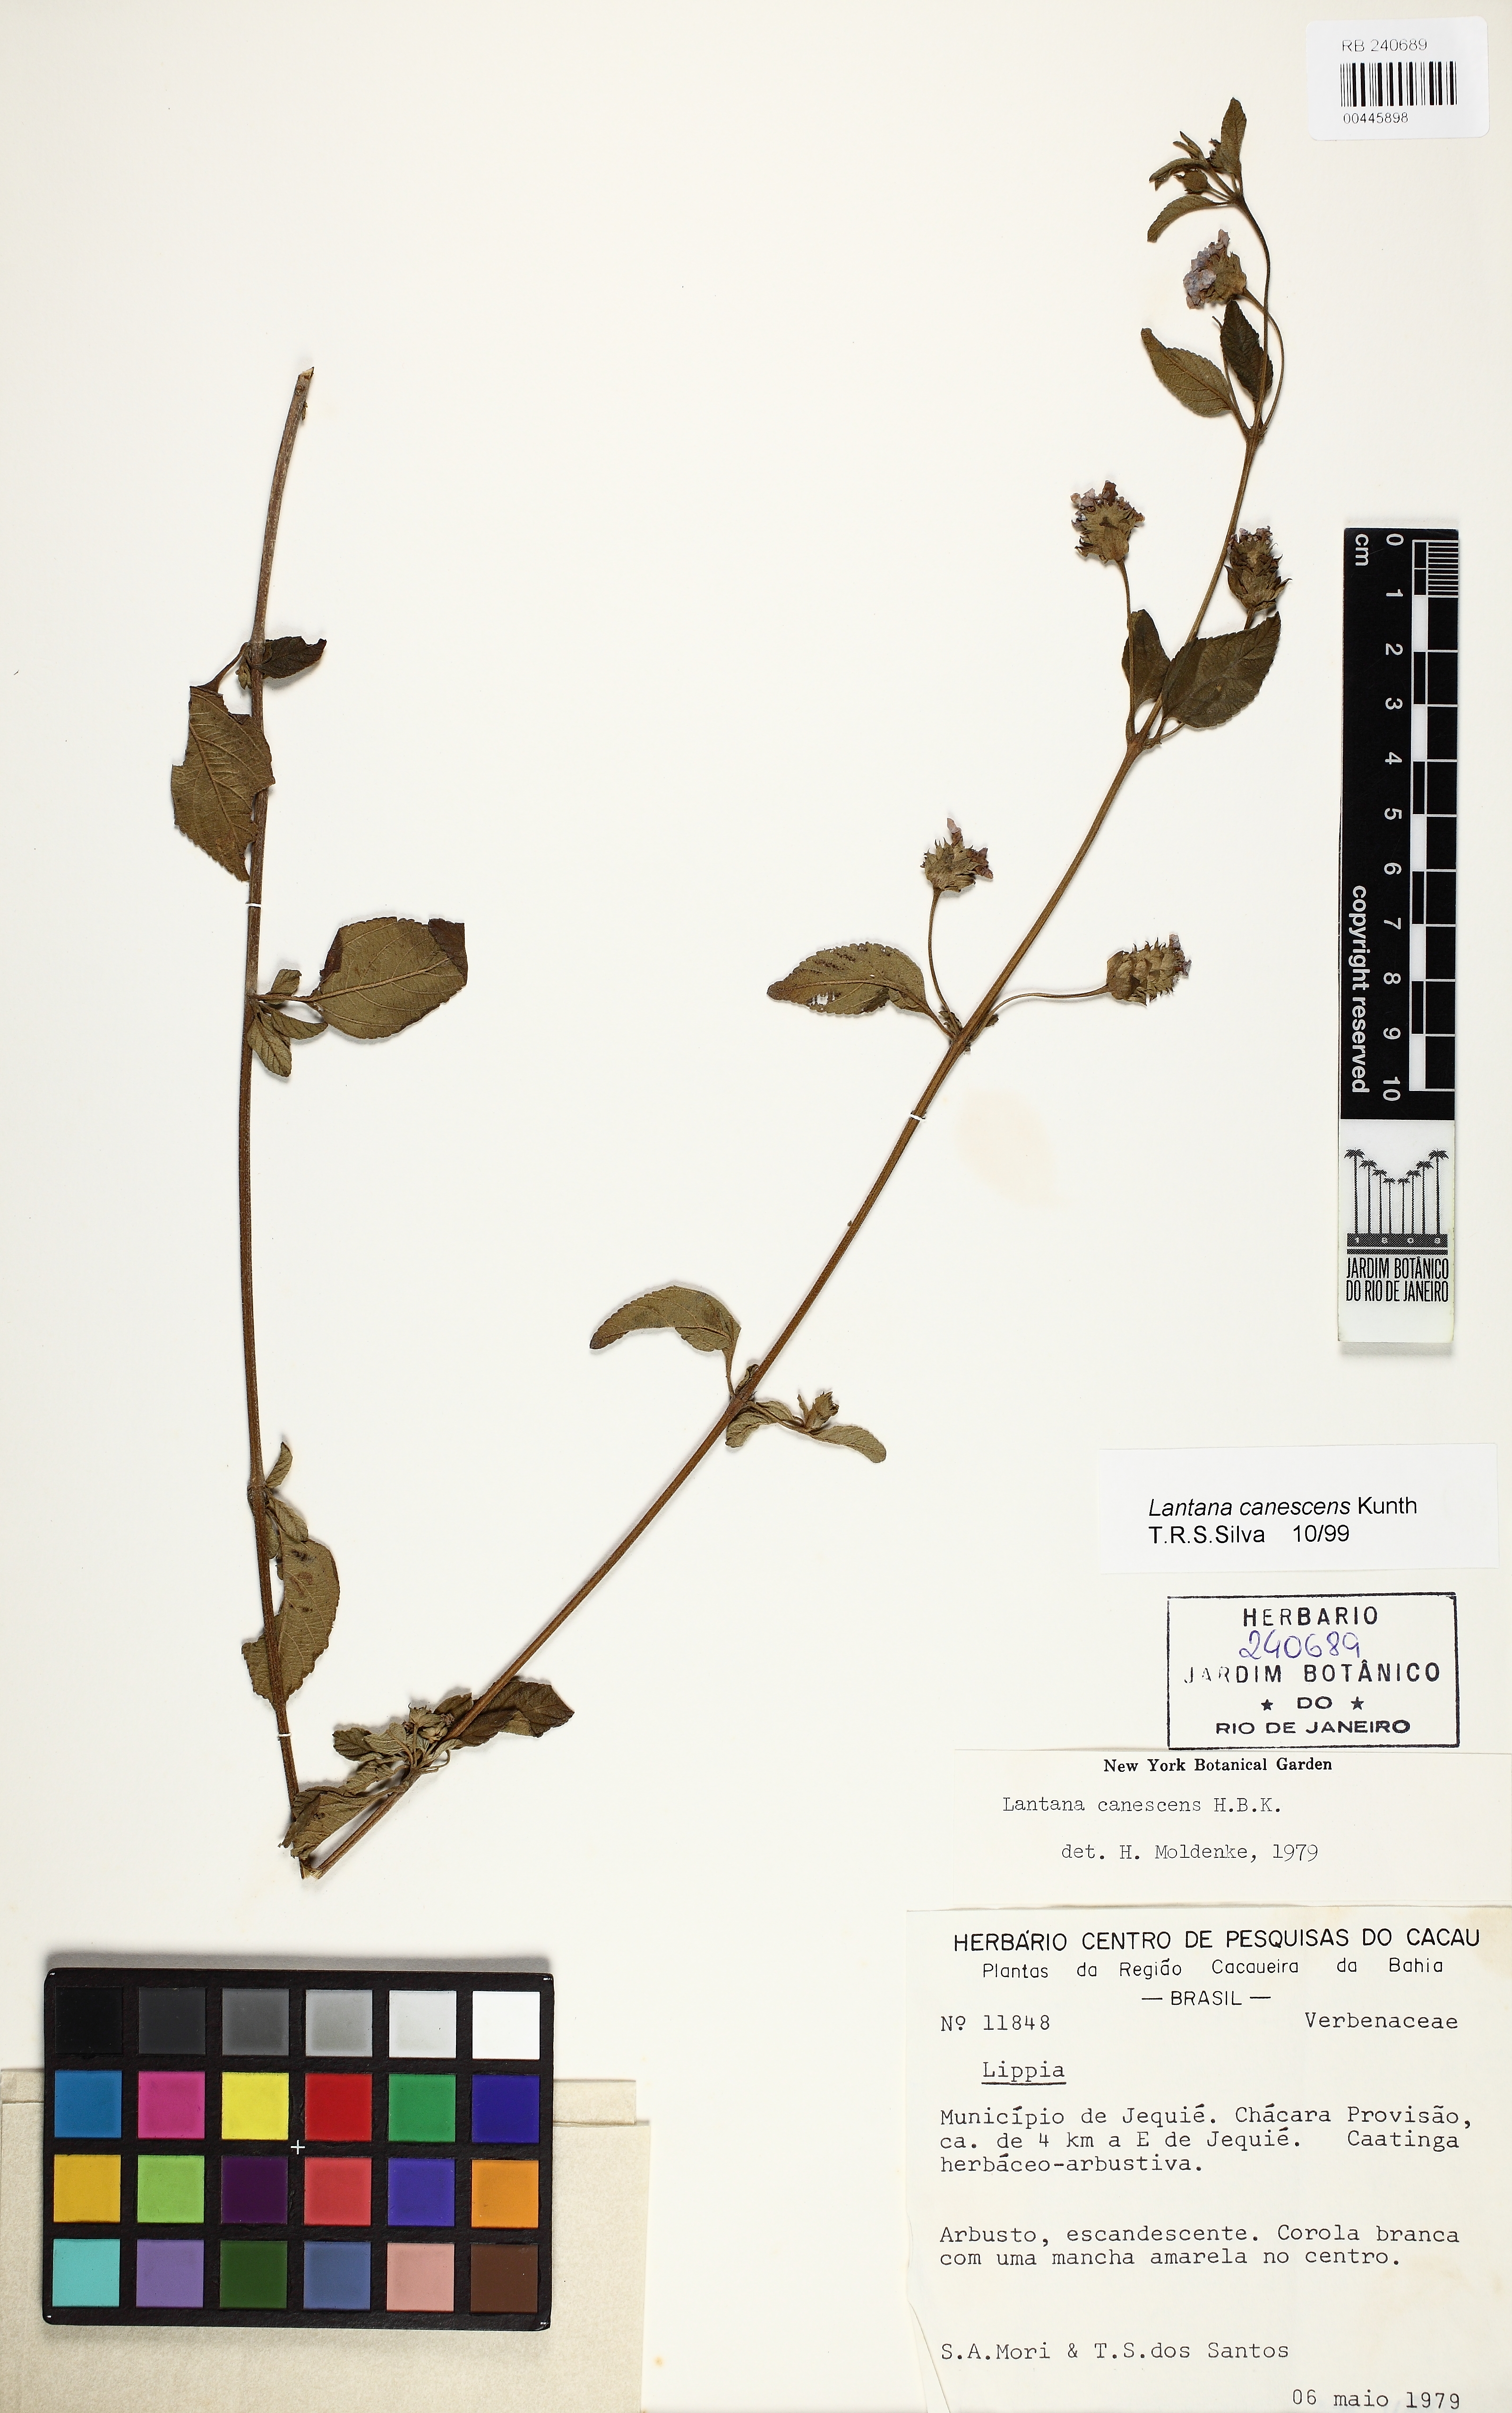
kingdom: Plantae
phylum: Tracheophyta
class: Magnoliopsida
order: Lamiales
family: Verbenaceae
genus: Lantana
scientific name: Lantana canescens
